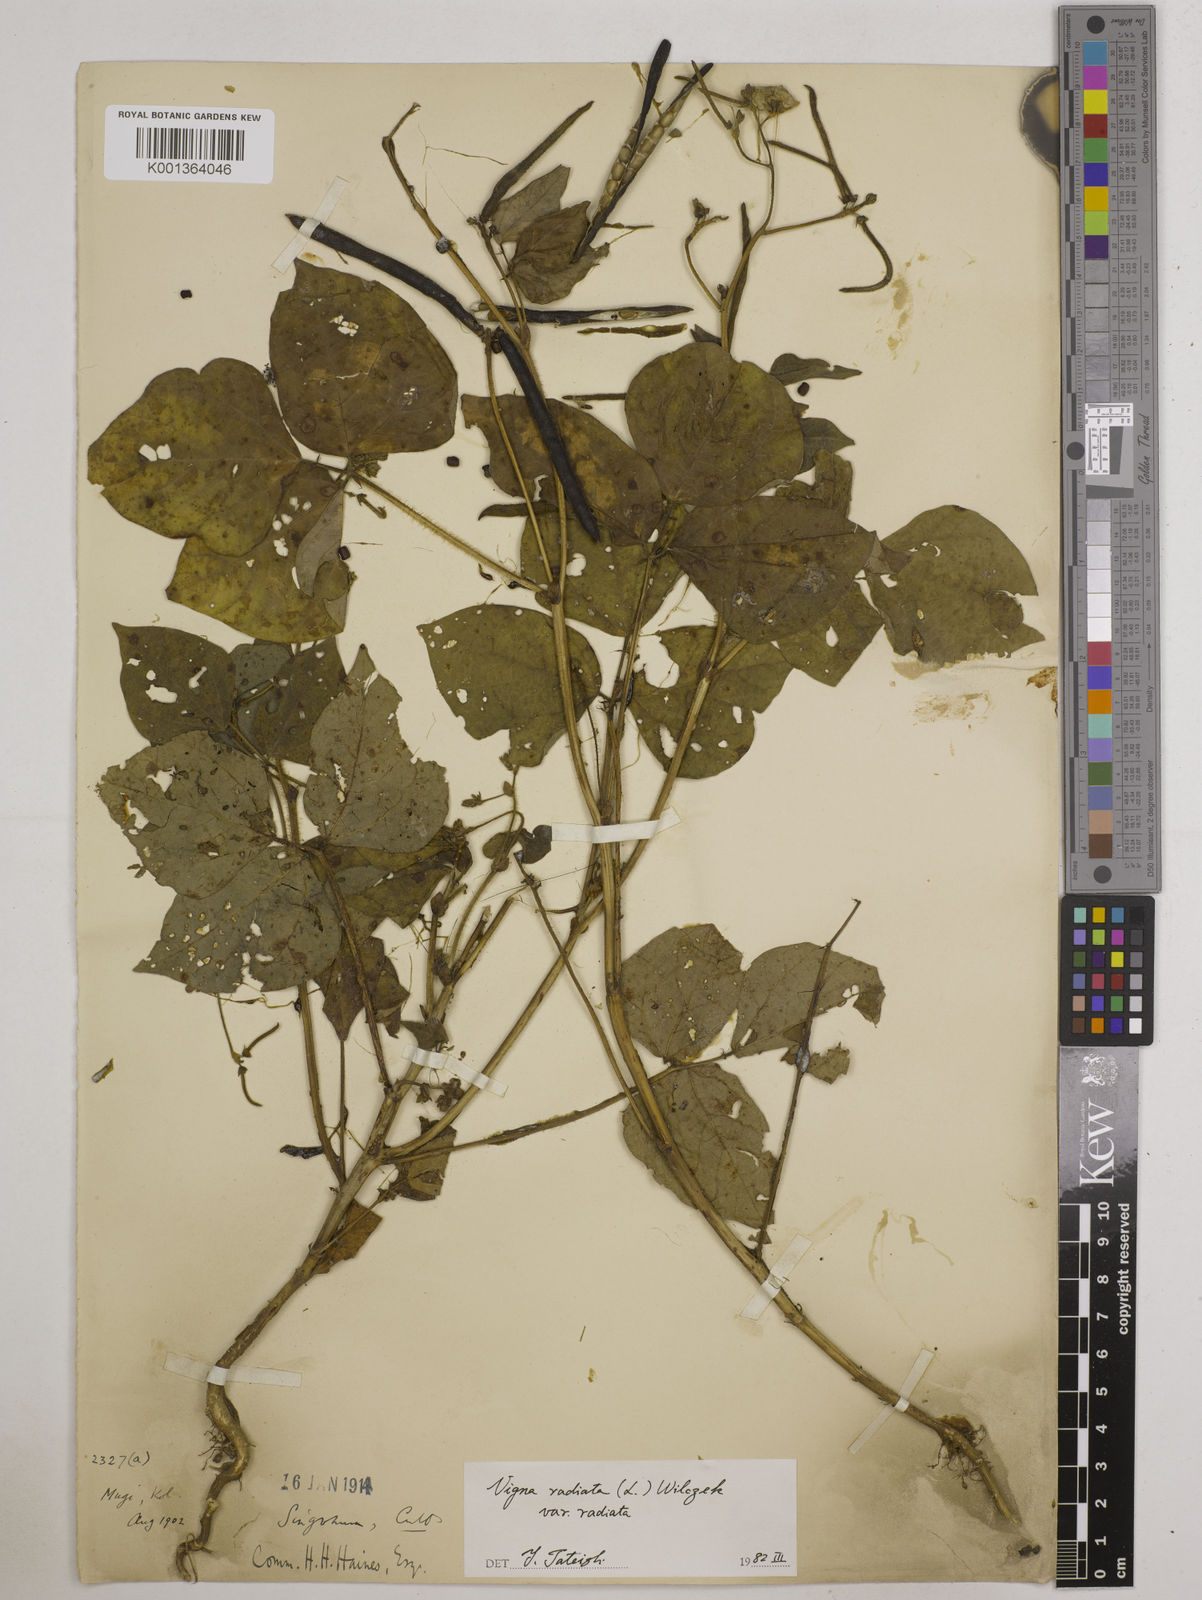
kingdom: Plantae
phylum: Tracheophyta
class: Magnoliopsida
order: Fabales
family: Fabaceae
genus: Vigna
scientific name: Vigna radiata
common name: Mung-bean
